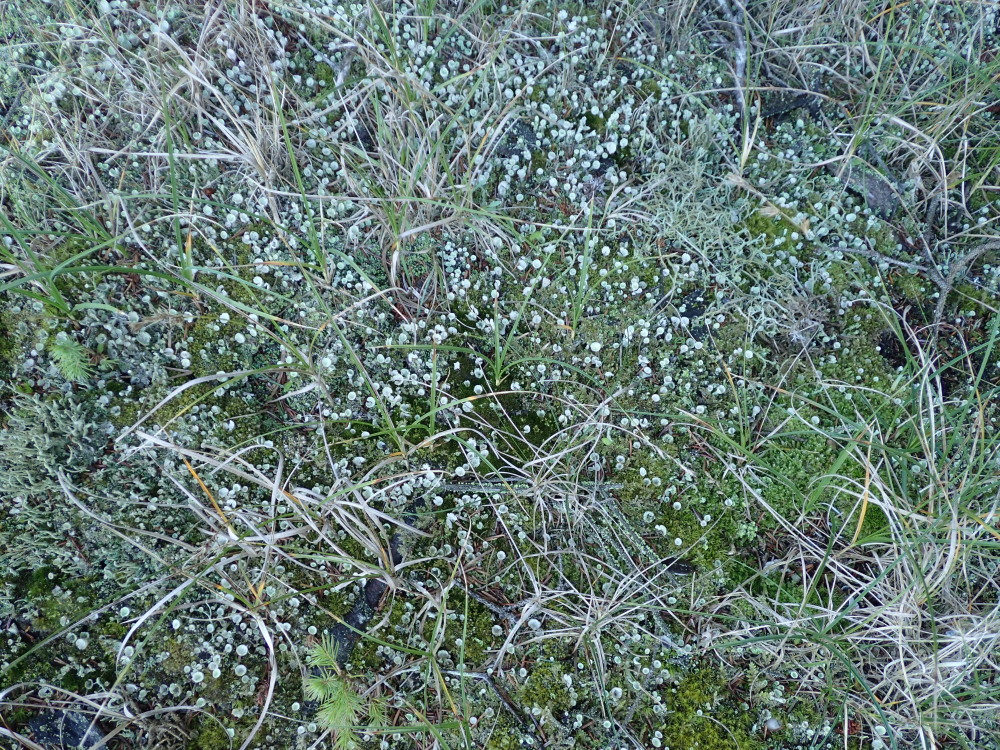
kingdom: Fungi
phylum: Ascomycota
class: Lecanoromycetes
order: Lecanorales
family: Cladoniaceae
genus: Cladonia
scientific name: Cladonia humilis
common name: lav bægerlav
